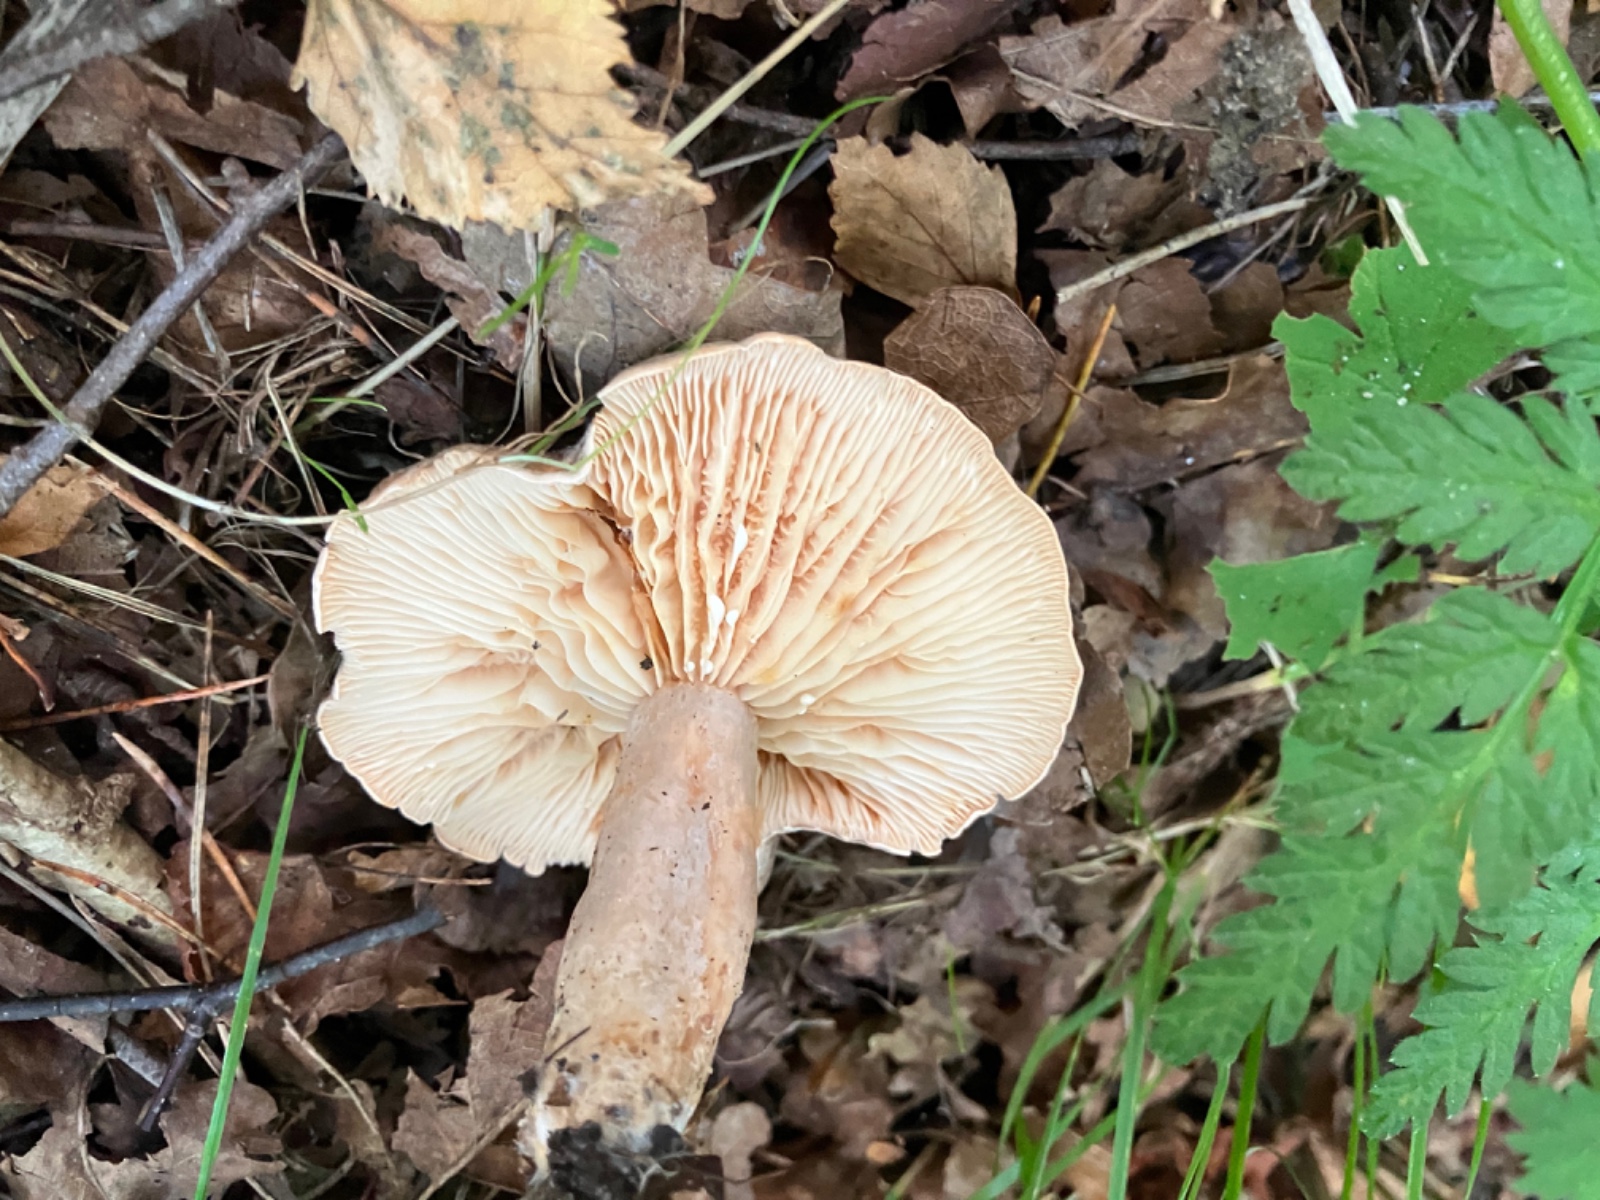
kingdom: Fungi
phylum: Basidiomycota
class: Agaricomycetes
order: Russulales
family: Russulaceae
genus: Lactarius
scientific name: Lactarius pyrogalus
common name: hassel-mælkehat
